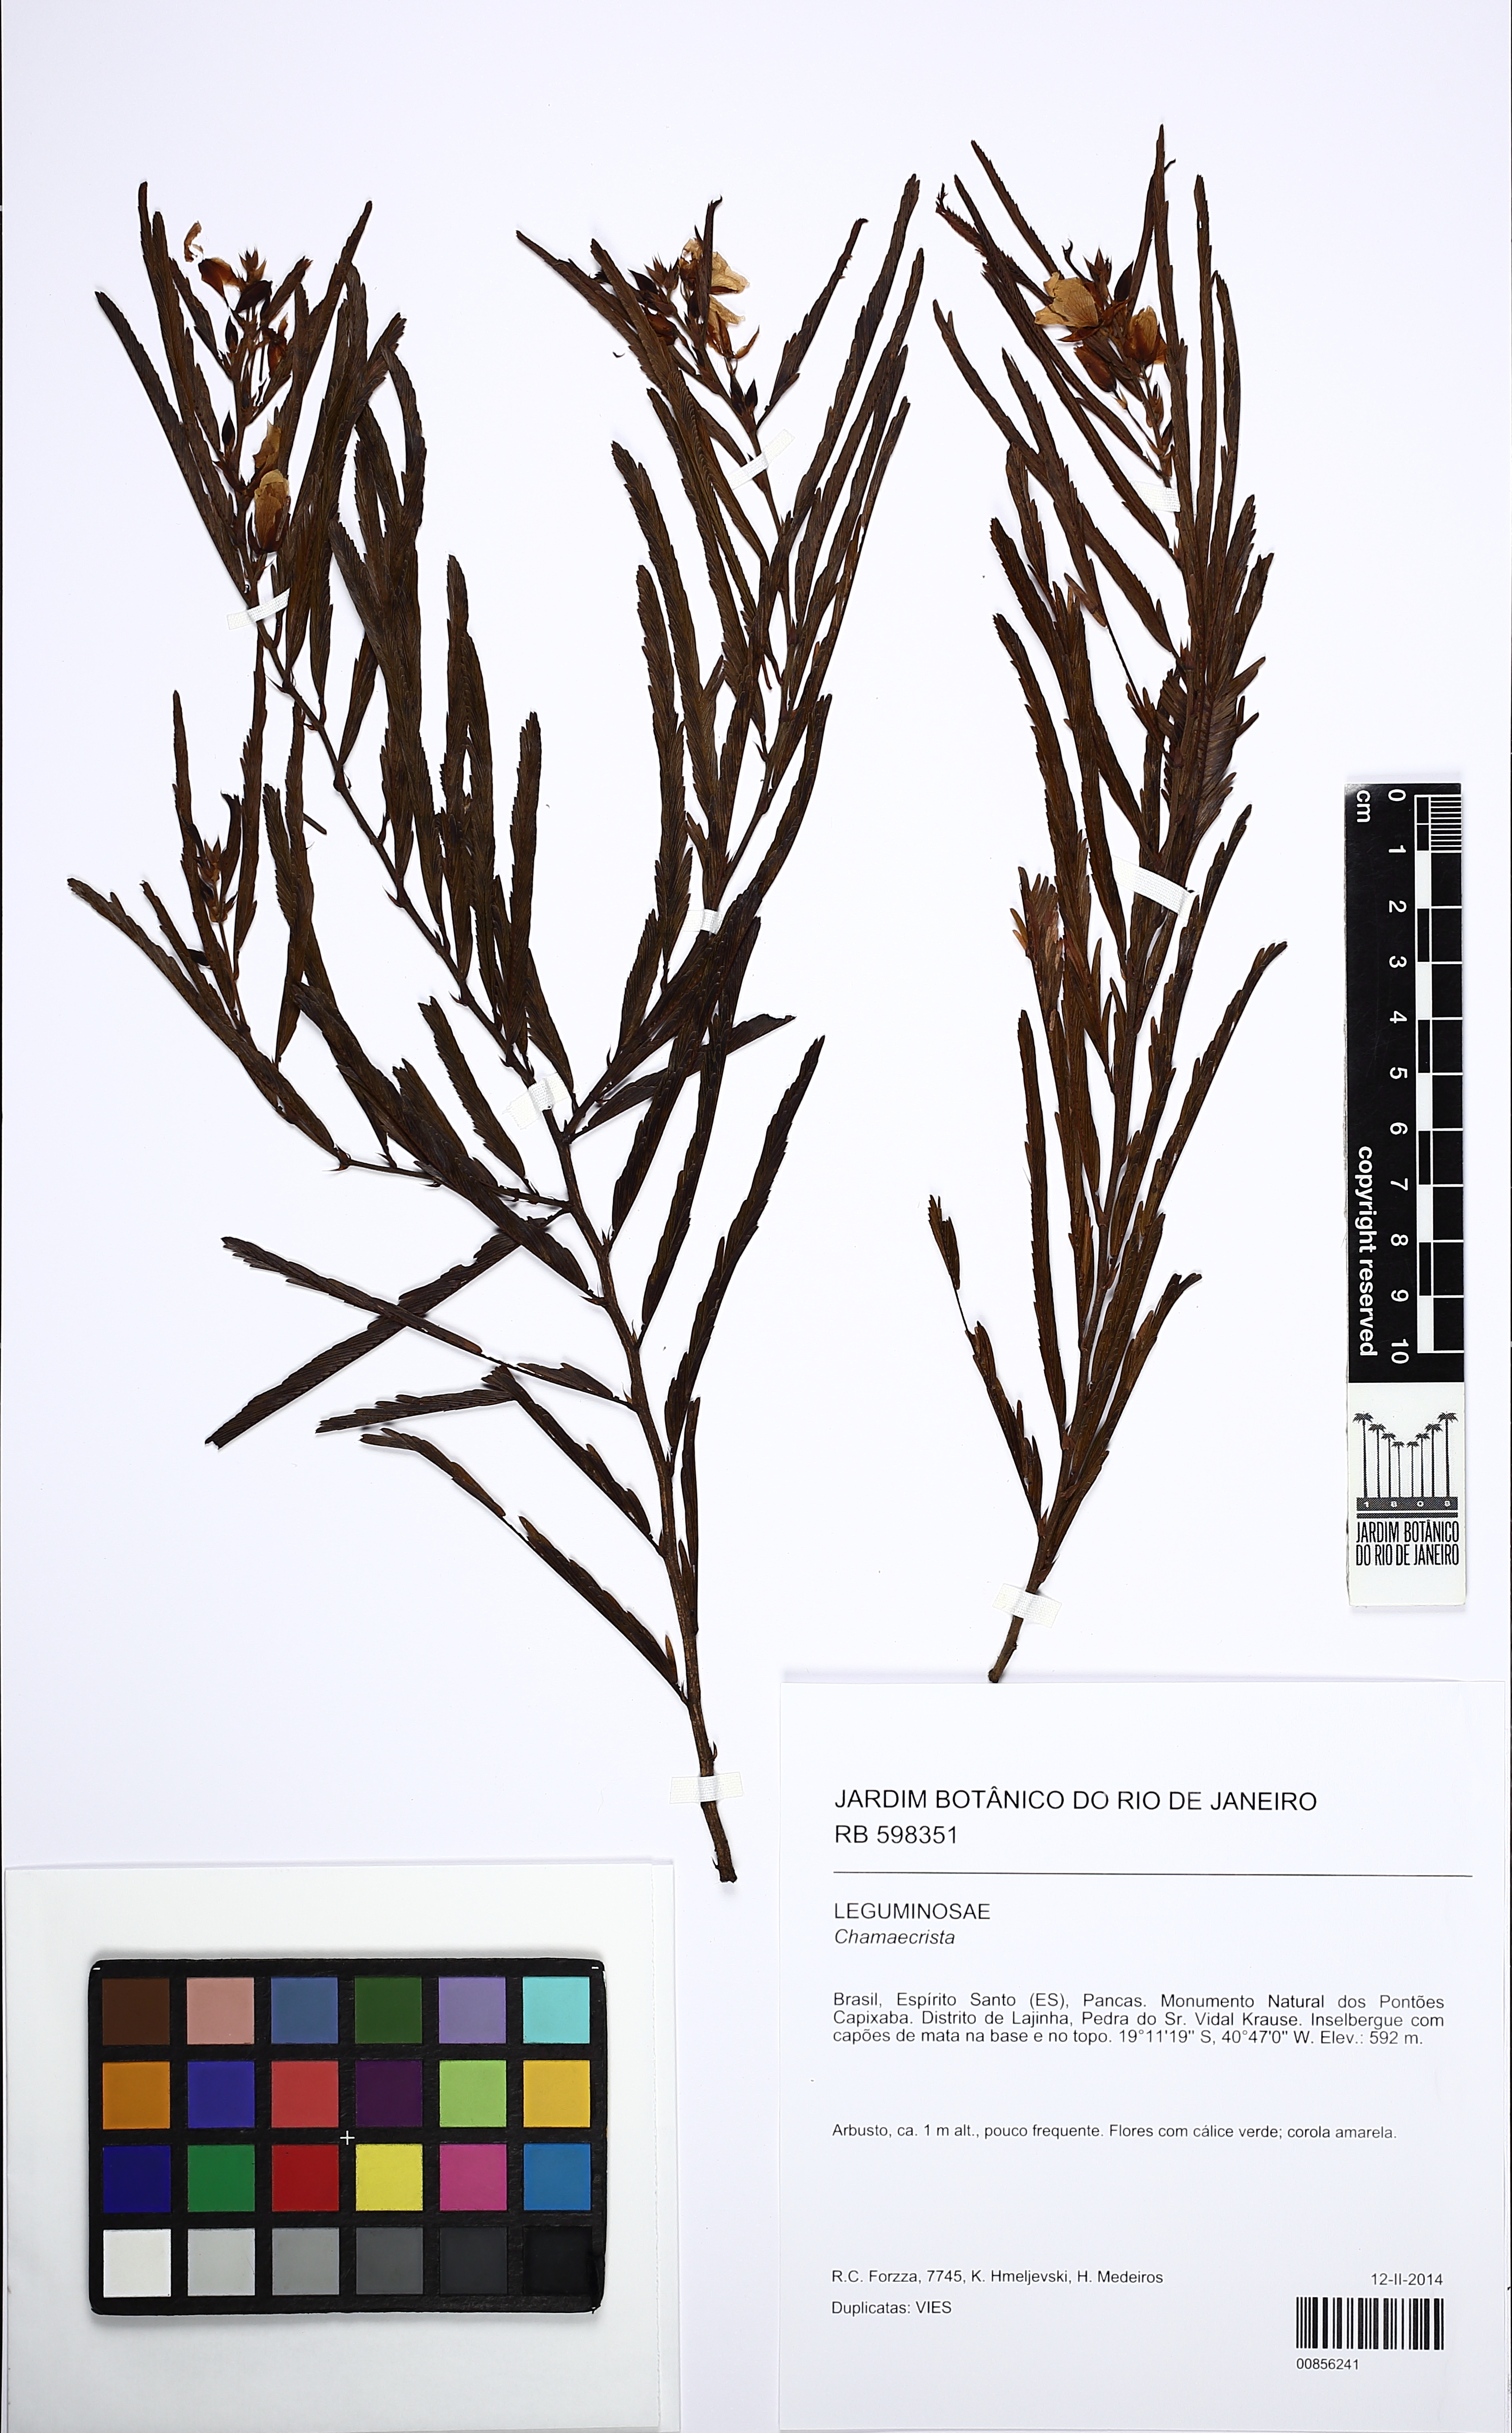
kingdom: Plantae
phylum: Tracheophyta
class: Magnoliopsida
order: Fabales
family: Fabaceae
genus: Chamaecrista
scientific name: Chamaecrista
